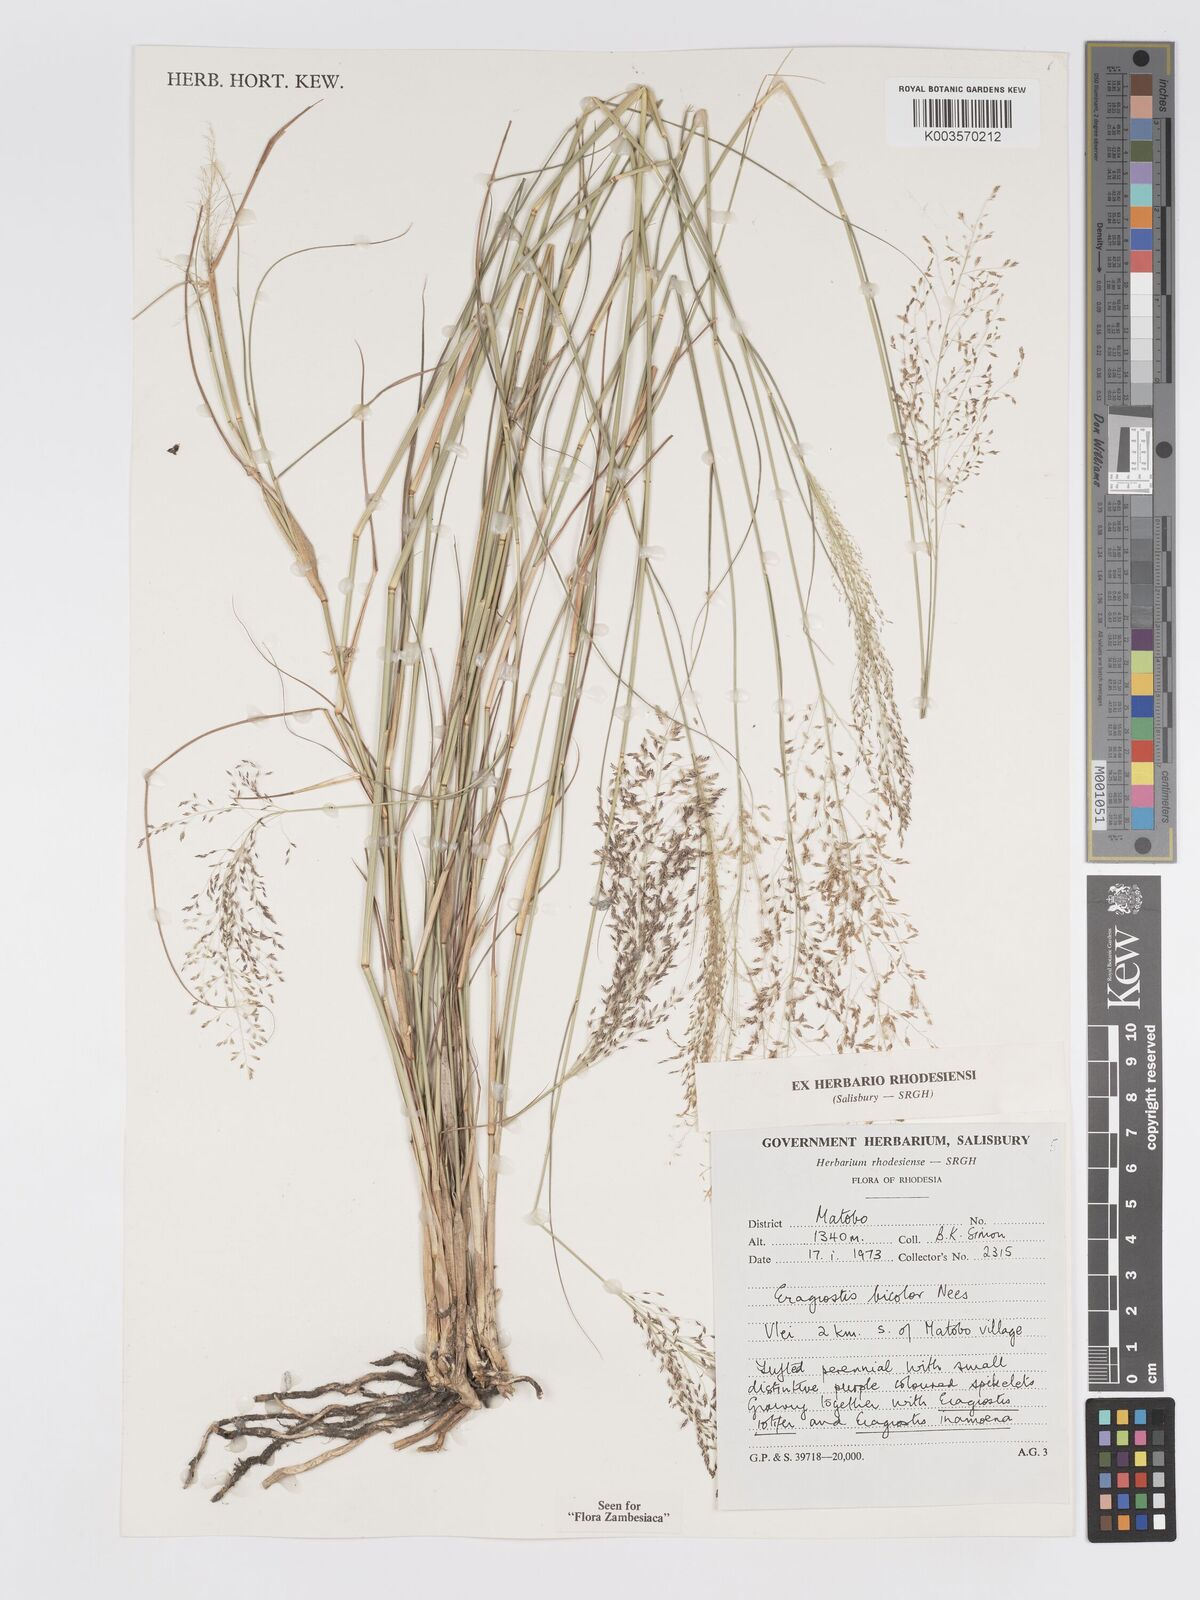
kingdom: Plantae
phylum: Tracheophyta
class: Liliopsida
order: Poales
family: Poaceae
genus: Eragrostis
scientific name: Eragrostis bicolor
